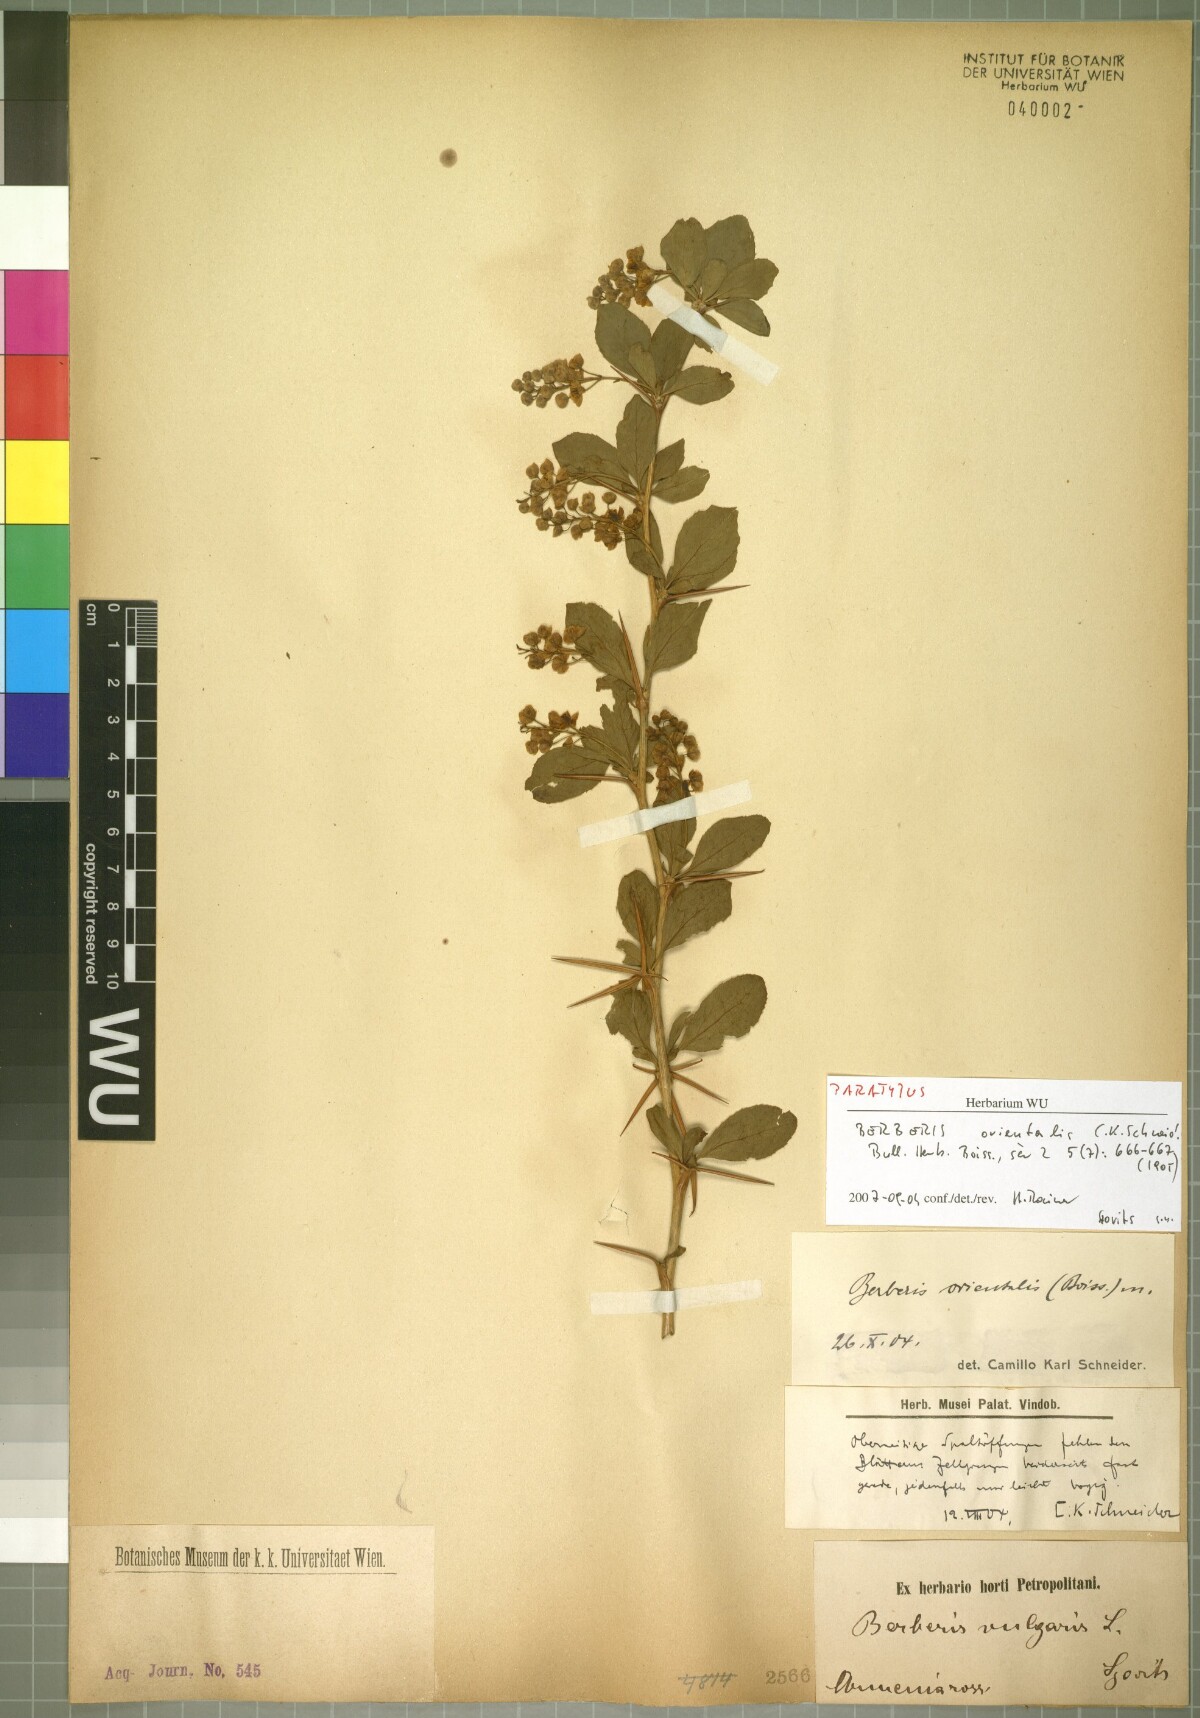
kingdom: Plantae
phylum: Tracheophyta
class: Magnoliopsida
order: Ranunculales
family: Berberidaceae
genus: Berberis
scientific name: Berberis vulgaris
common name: Barberry
